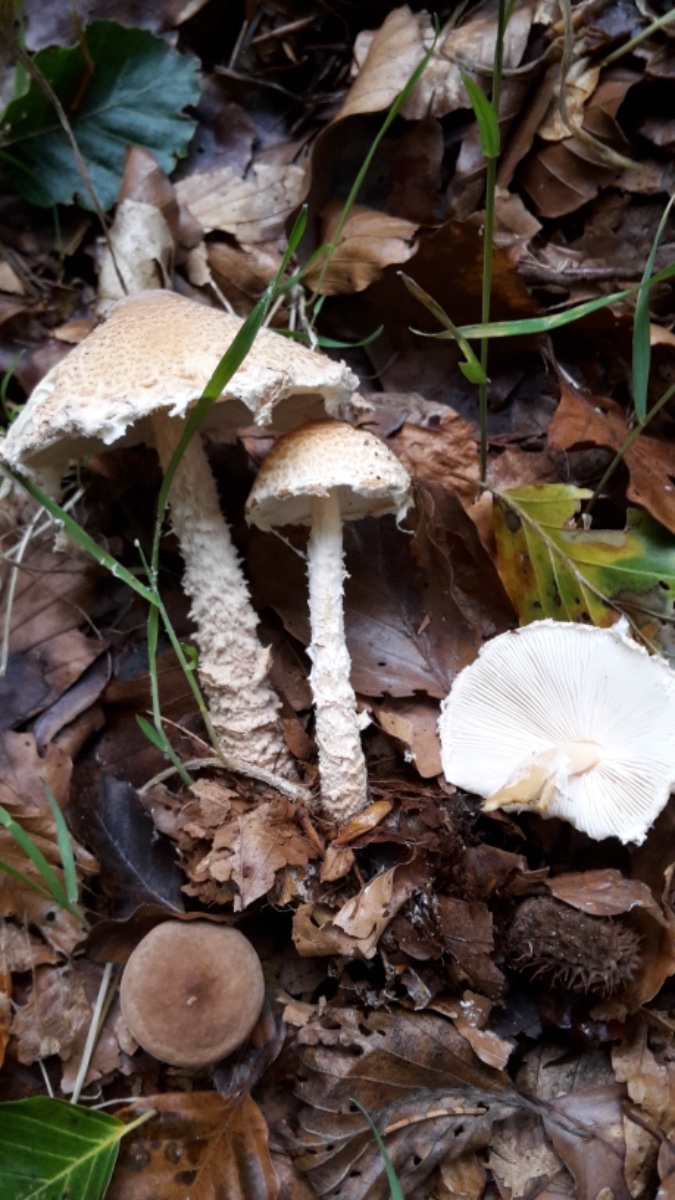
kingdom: Fungi
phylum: Basidiomycota
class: Agaricomycetes
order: Agaricales
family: Agaricaceae
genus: Lepiota
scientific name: Lepiota magnispora
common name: gulfnugget parasolhat
